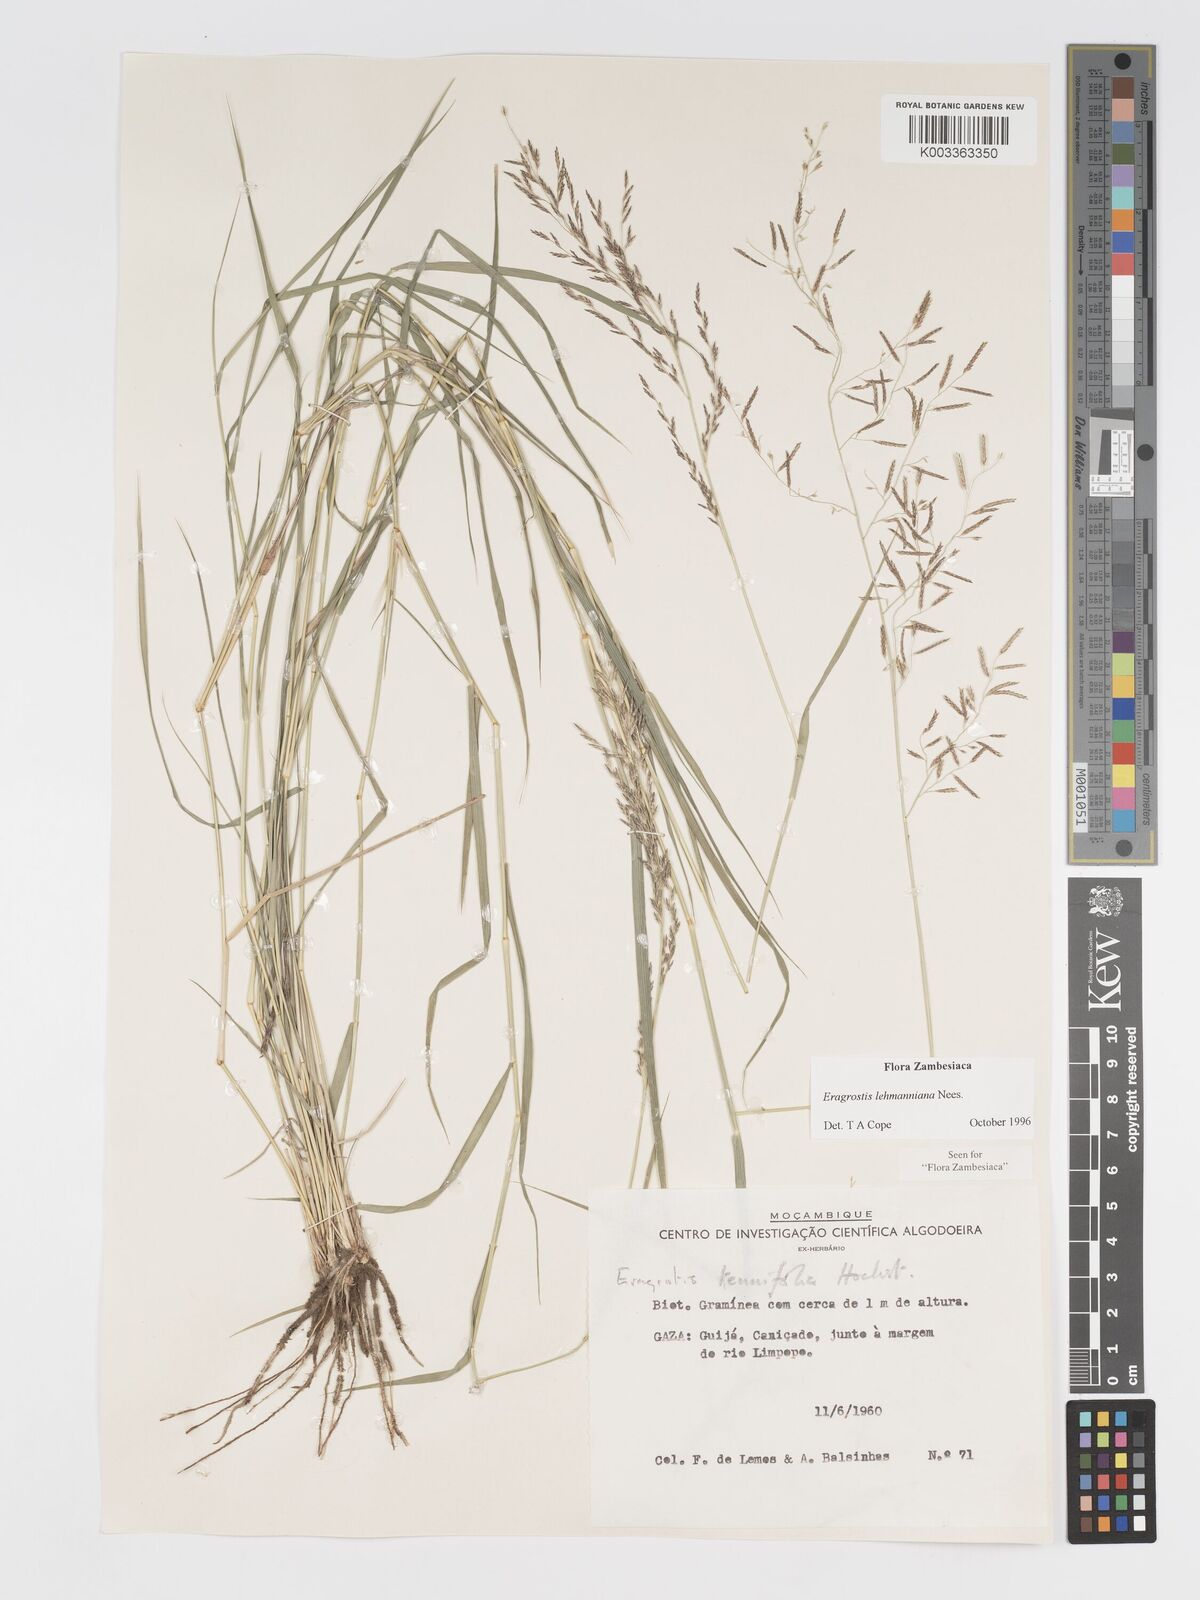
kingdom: Plantae
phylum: Tracheophyta
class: Liliopsida
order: Poales
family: Poaceae
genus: Eragrostis
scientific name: Eragrostis lehmanniana
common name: Lehmann lovegrass
